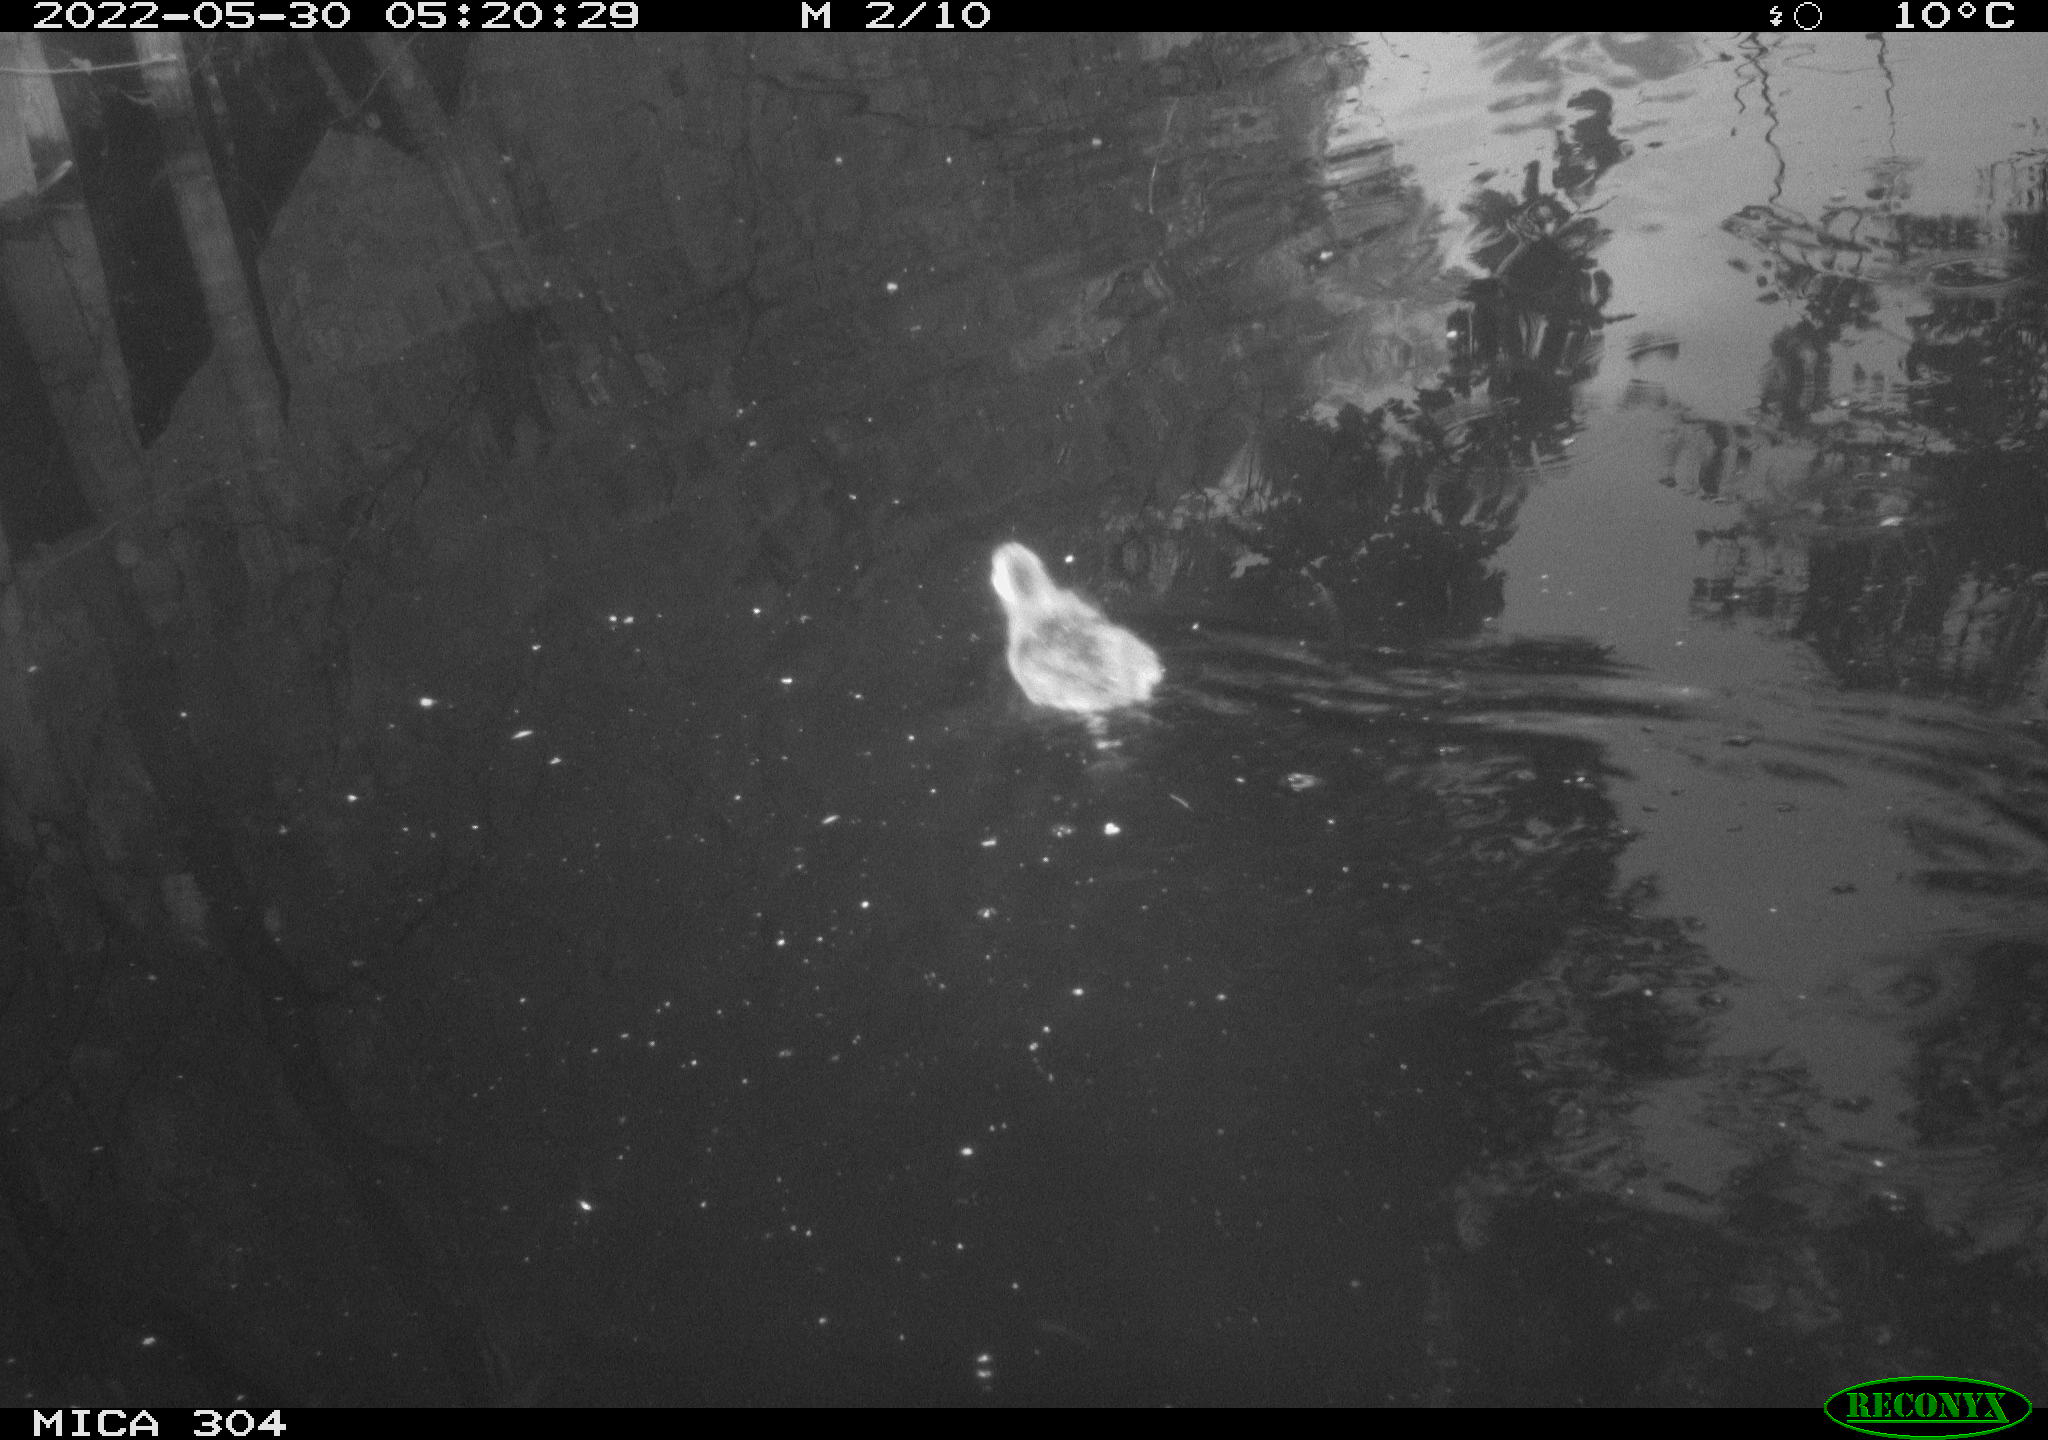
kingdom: Animalia
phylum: Chordata
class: Aves
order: Anseriformes
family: Anatidae
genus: Anas
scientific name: Anas platyrhynchos
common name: Mallard
